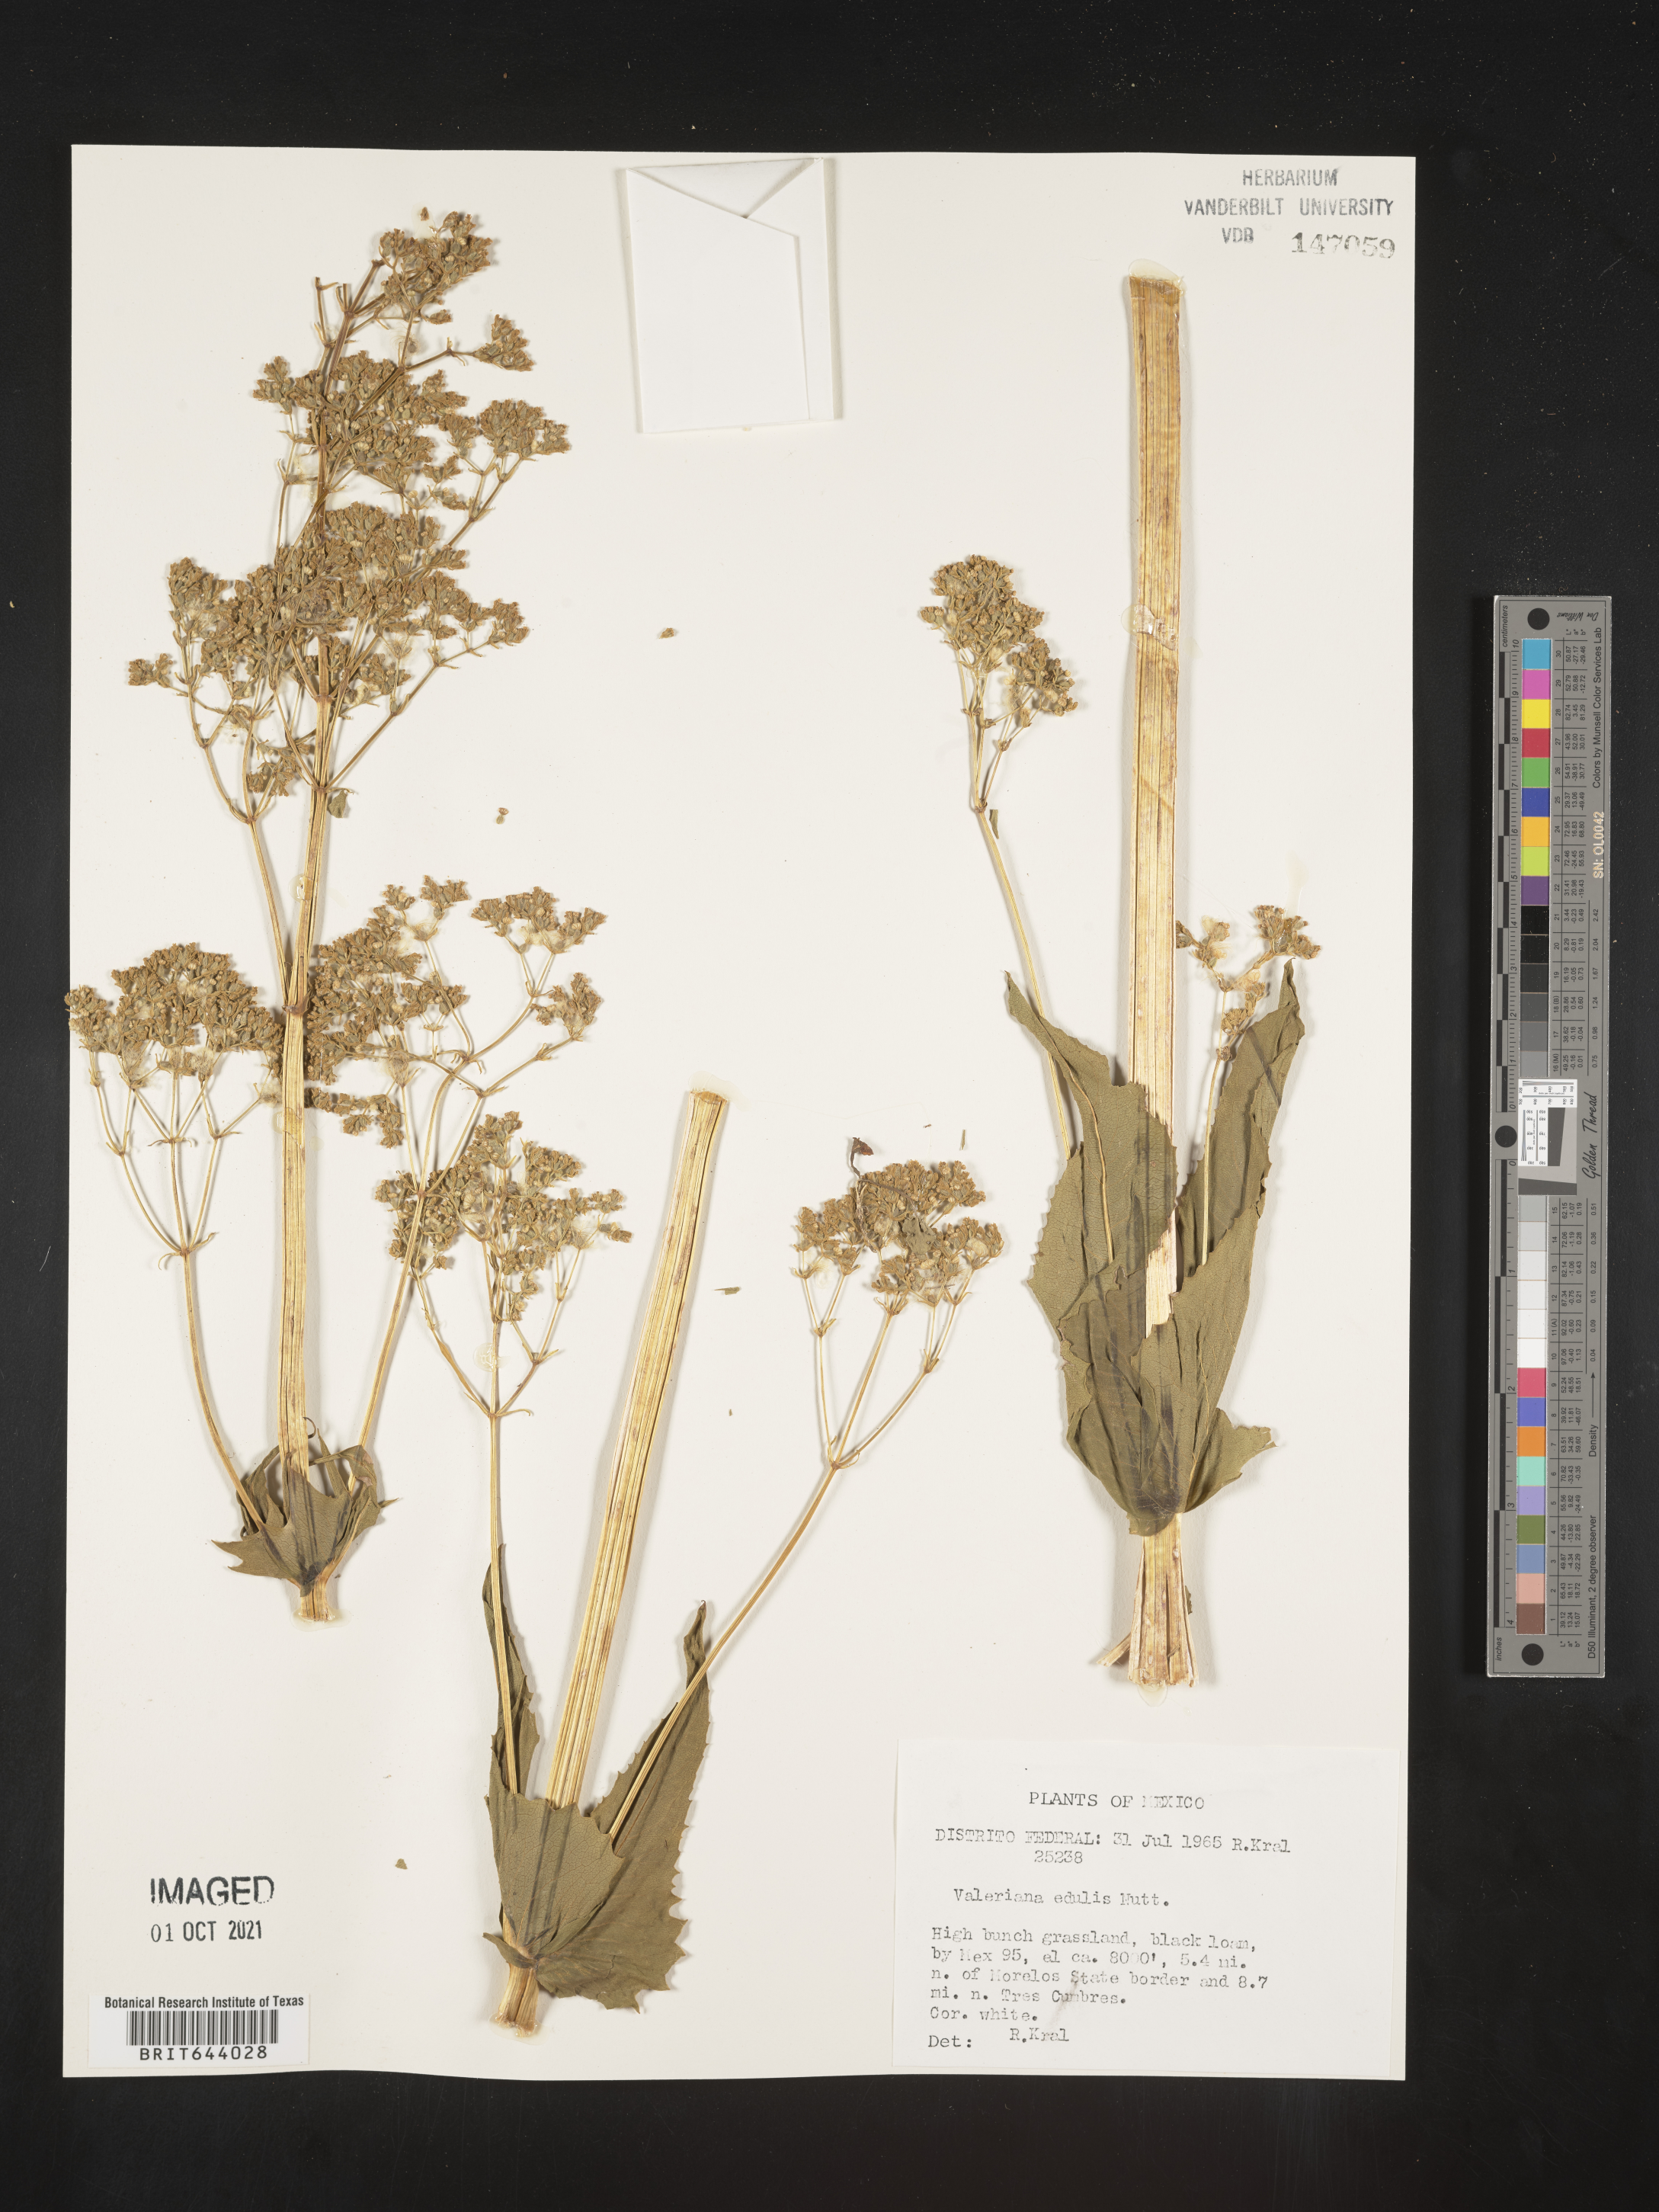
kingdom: Plantae
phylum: Tracheophyta
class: Magnoliopsida
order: Dipsacales
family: Caprifoliaceae
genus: Valeriana
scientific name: Valeriana
